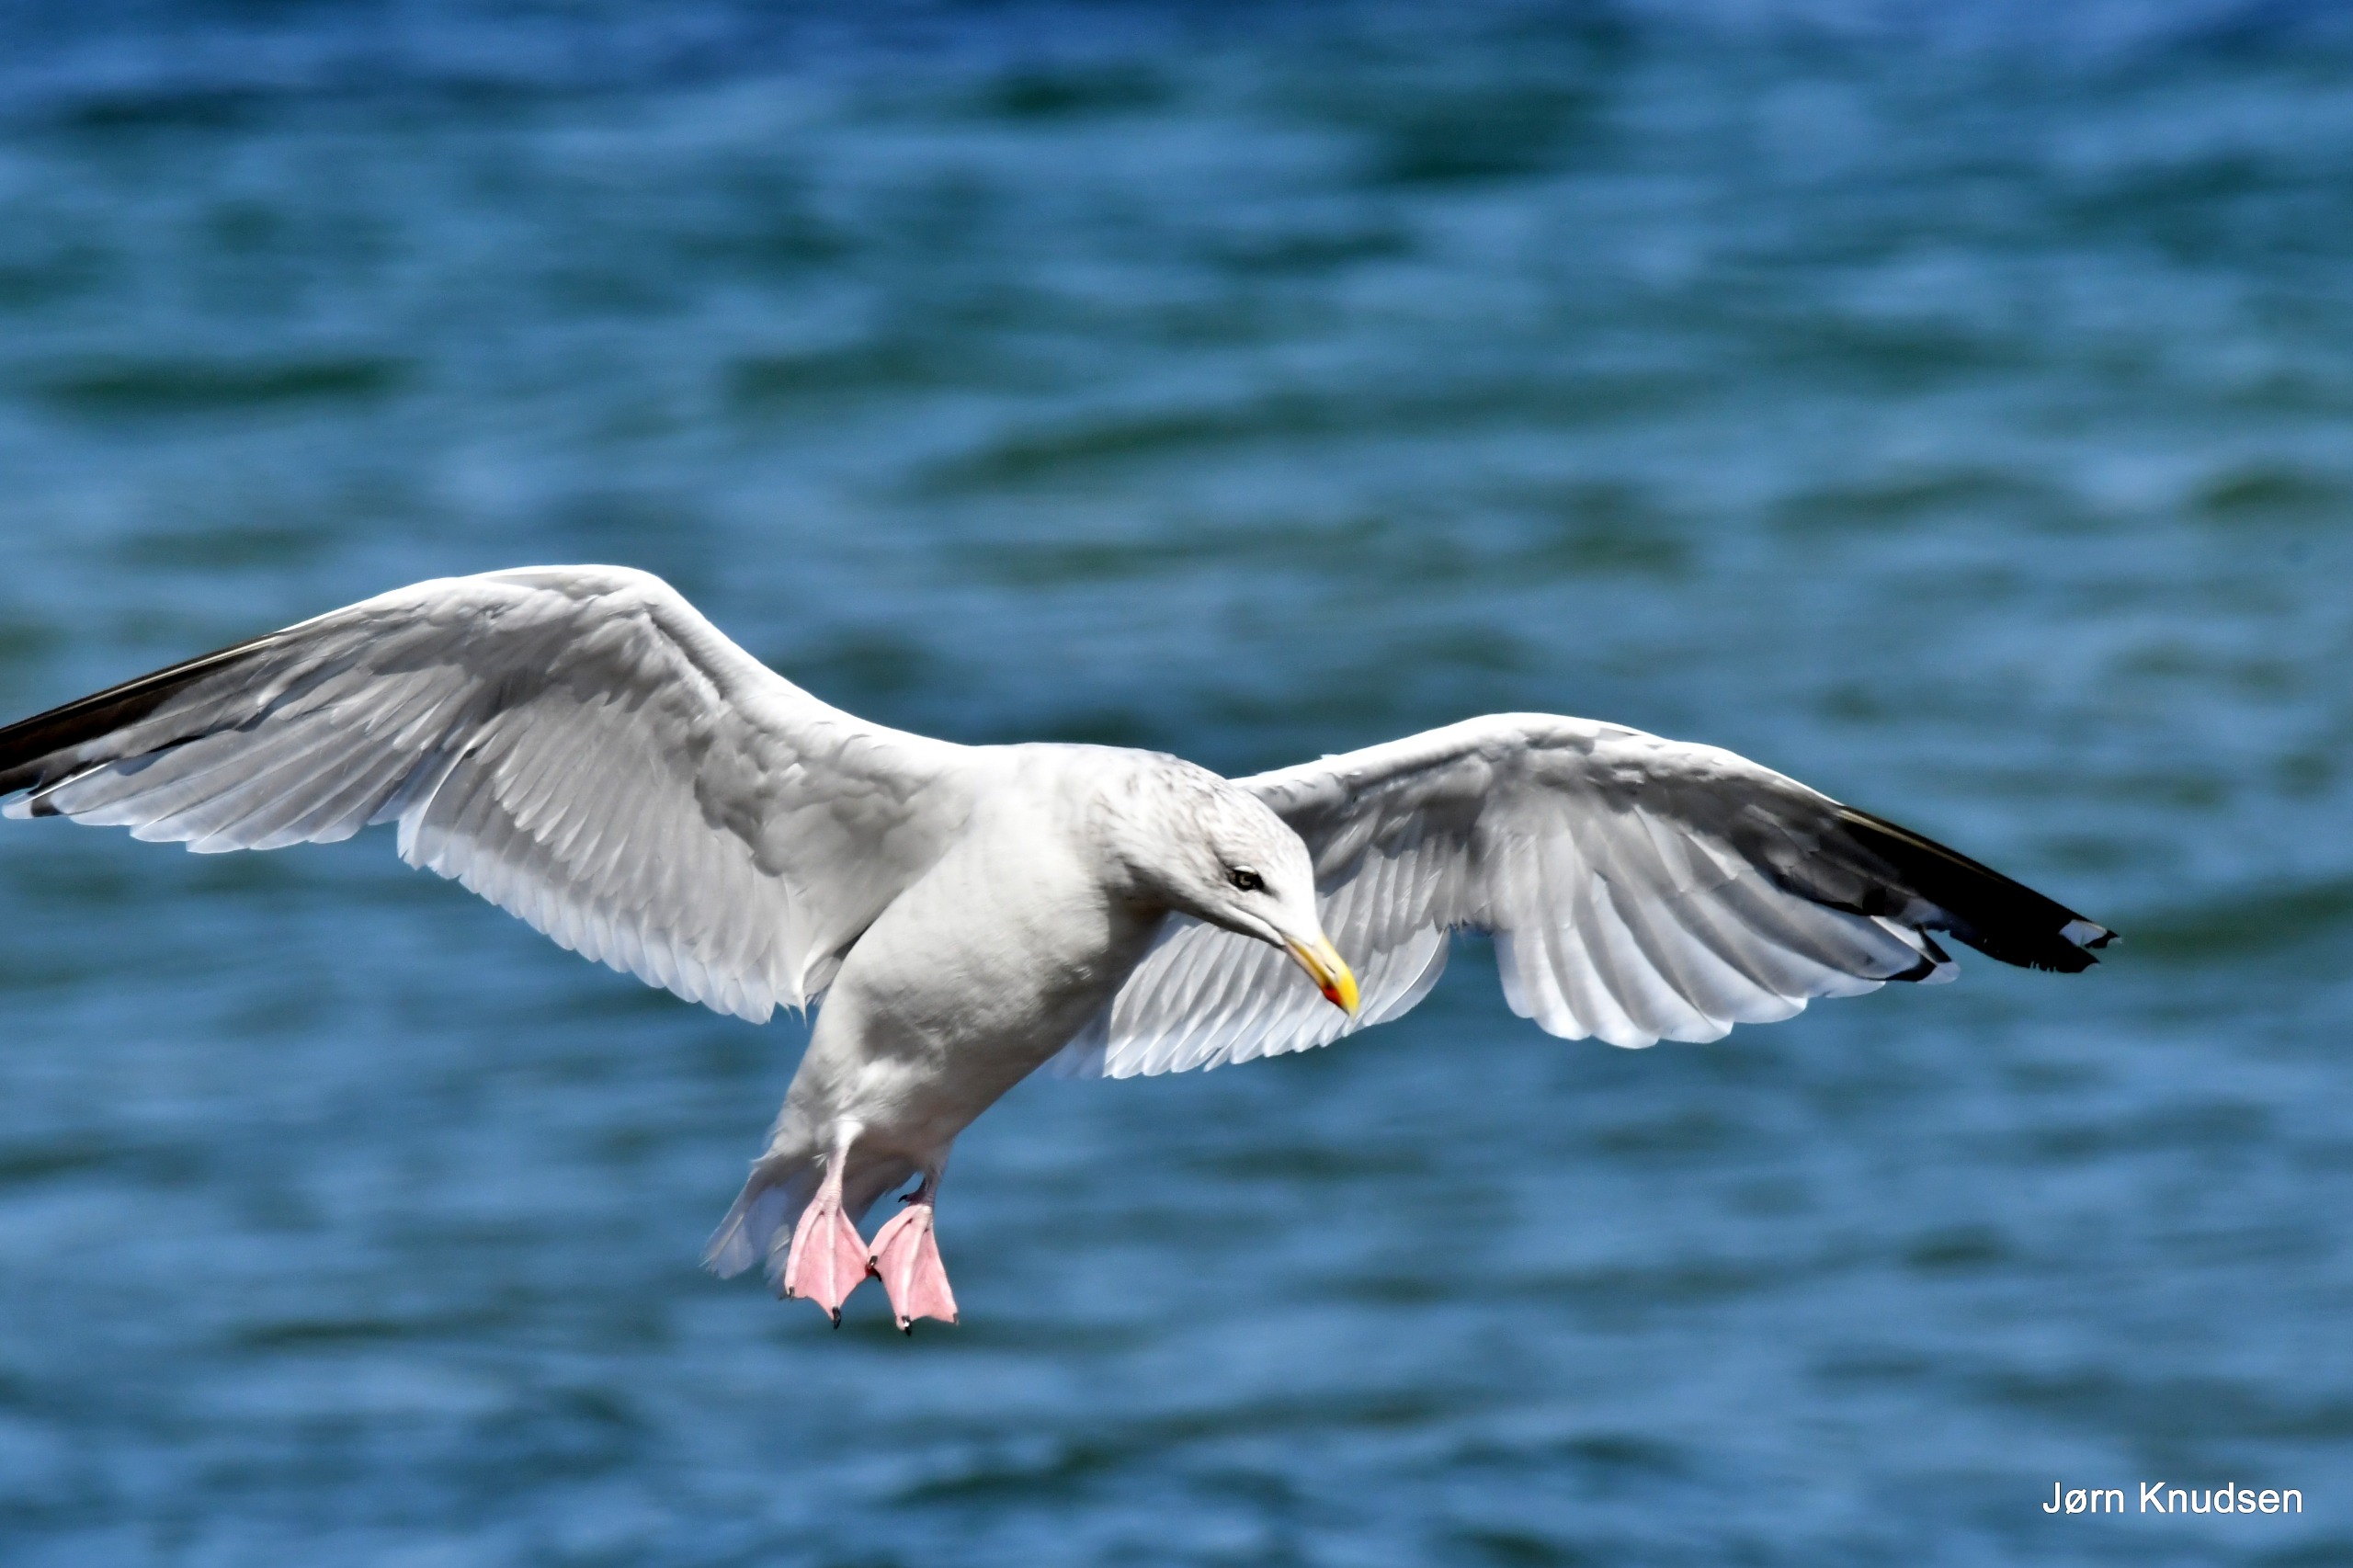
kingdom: Animalia
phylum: Chordata
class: Aves
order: Charadriiformes
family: Laridae
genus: Larus
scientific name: Larus argentatus
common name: Sølvmåge
